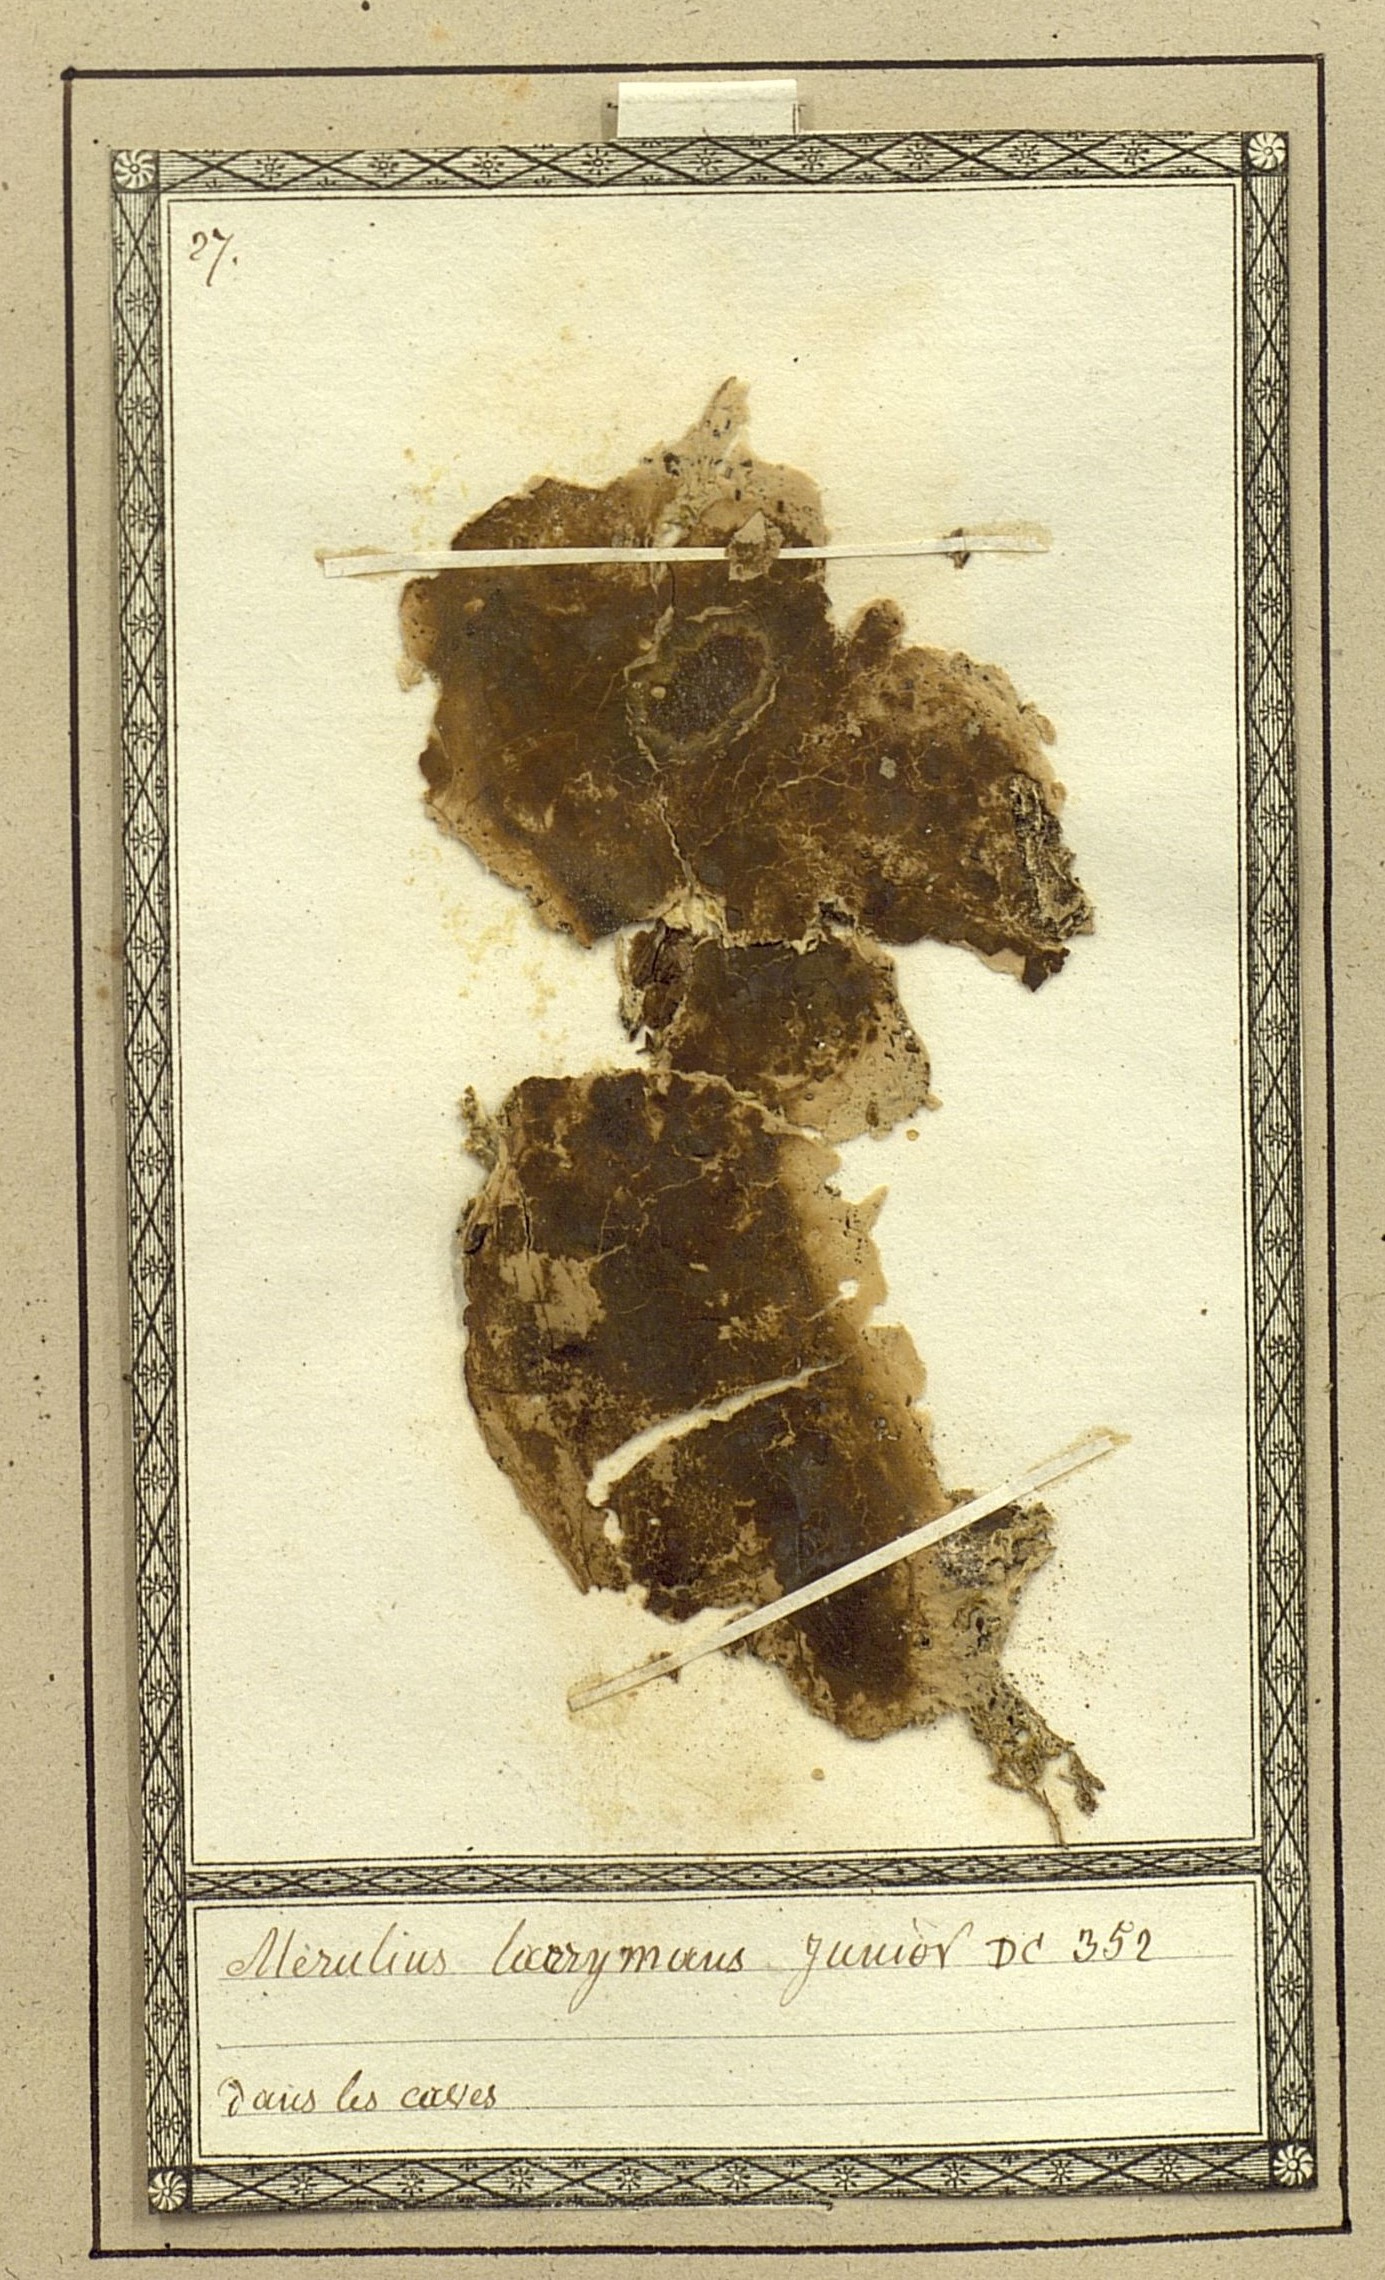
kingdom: Fungi
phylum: Basidiomycota
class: Agaricomycetes
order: Boletales
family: Serpulaceae
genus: Serpula
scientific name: Serpula lacrymans
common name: Dry rot
